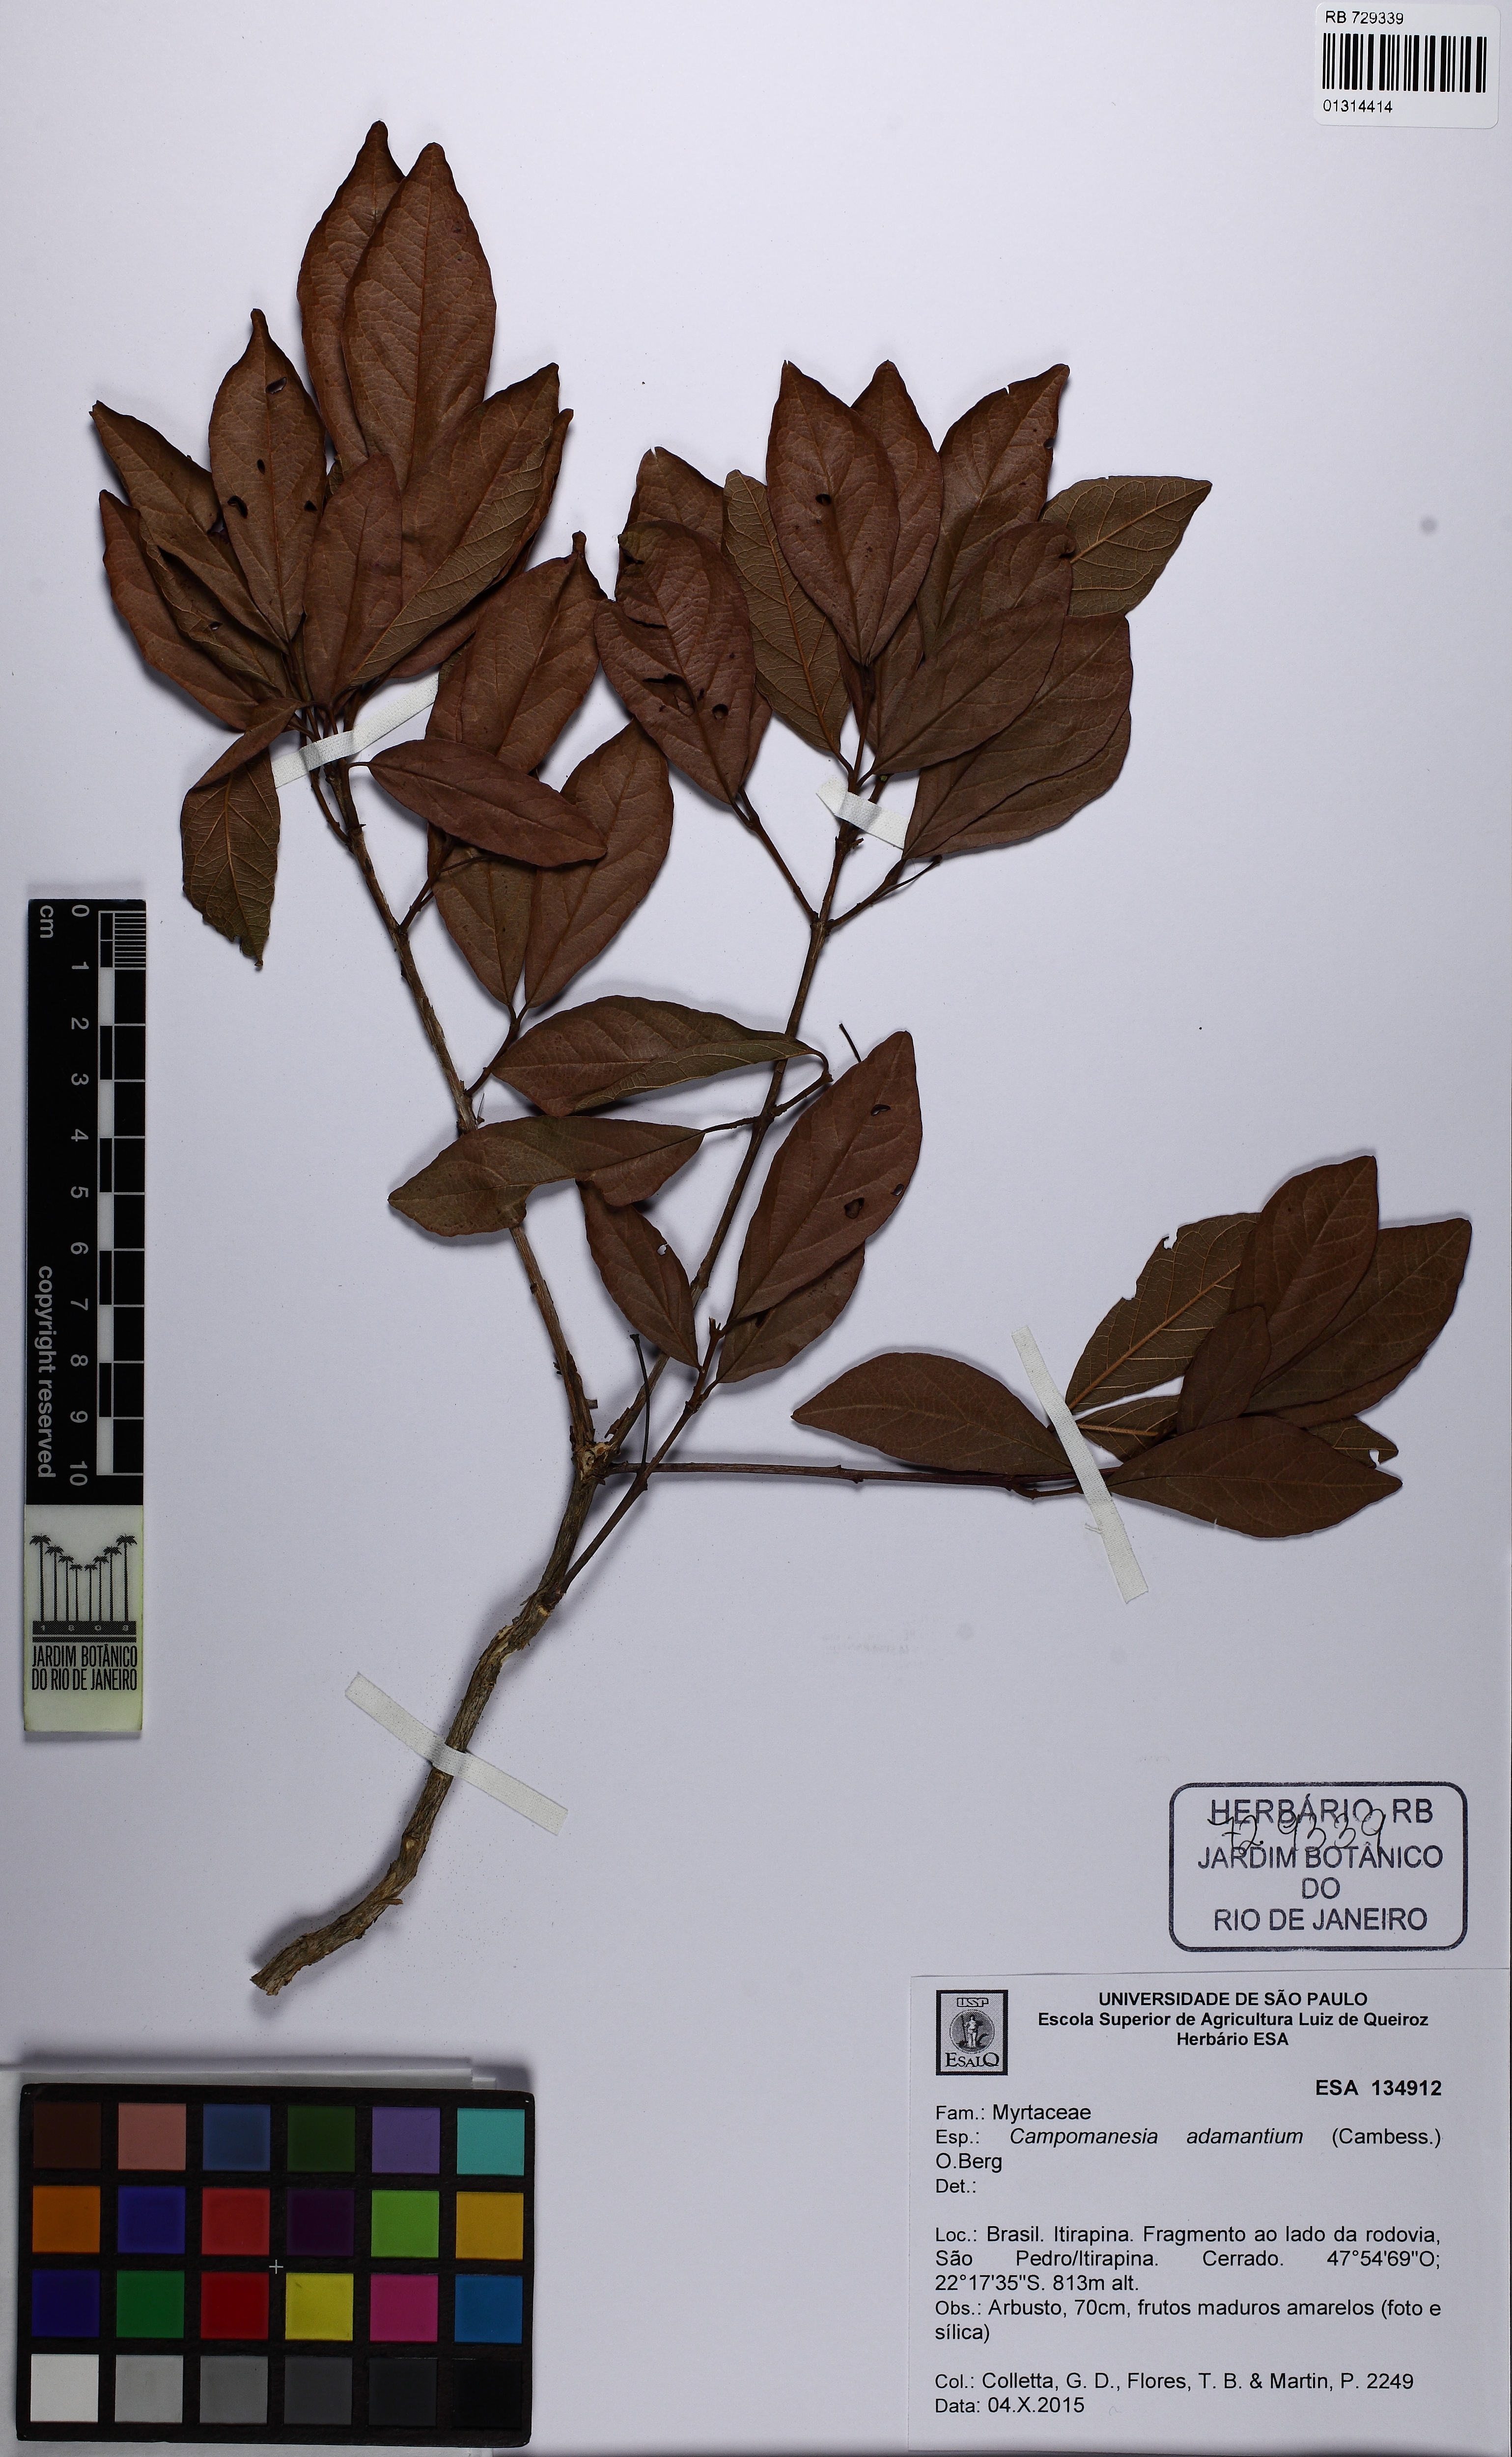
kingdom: Plantae
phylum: Tracheophyta
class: Magnoliopsida
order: Myrtales
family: Myrtaceae
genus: Campomanesia
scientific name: Campomanesia adamantium
